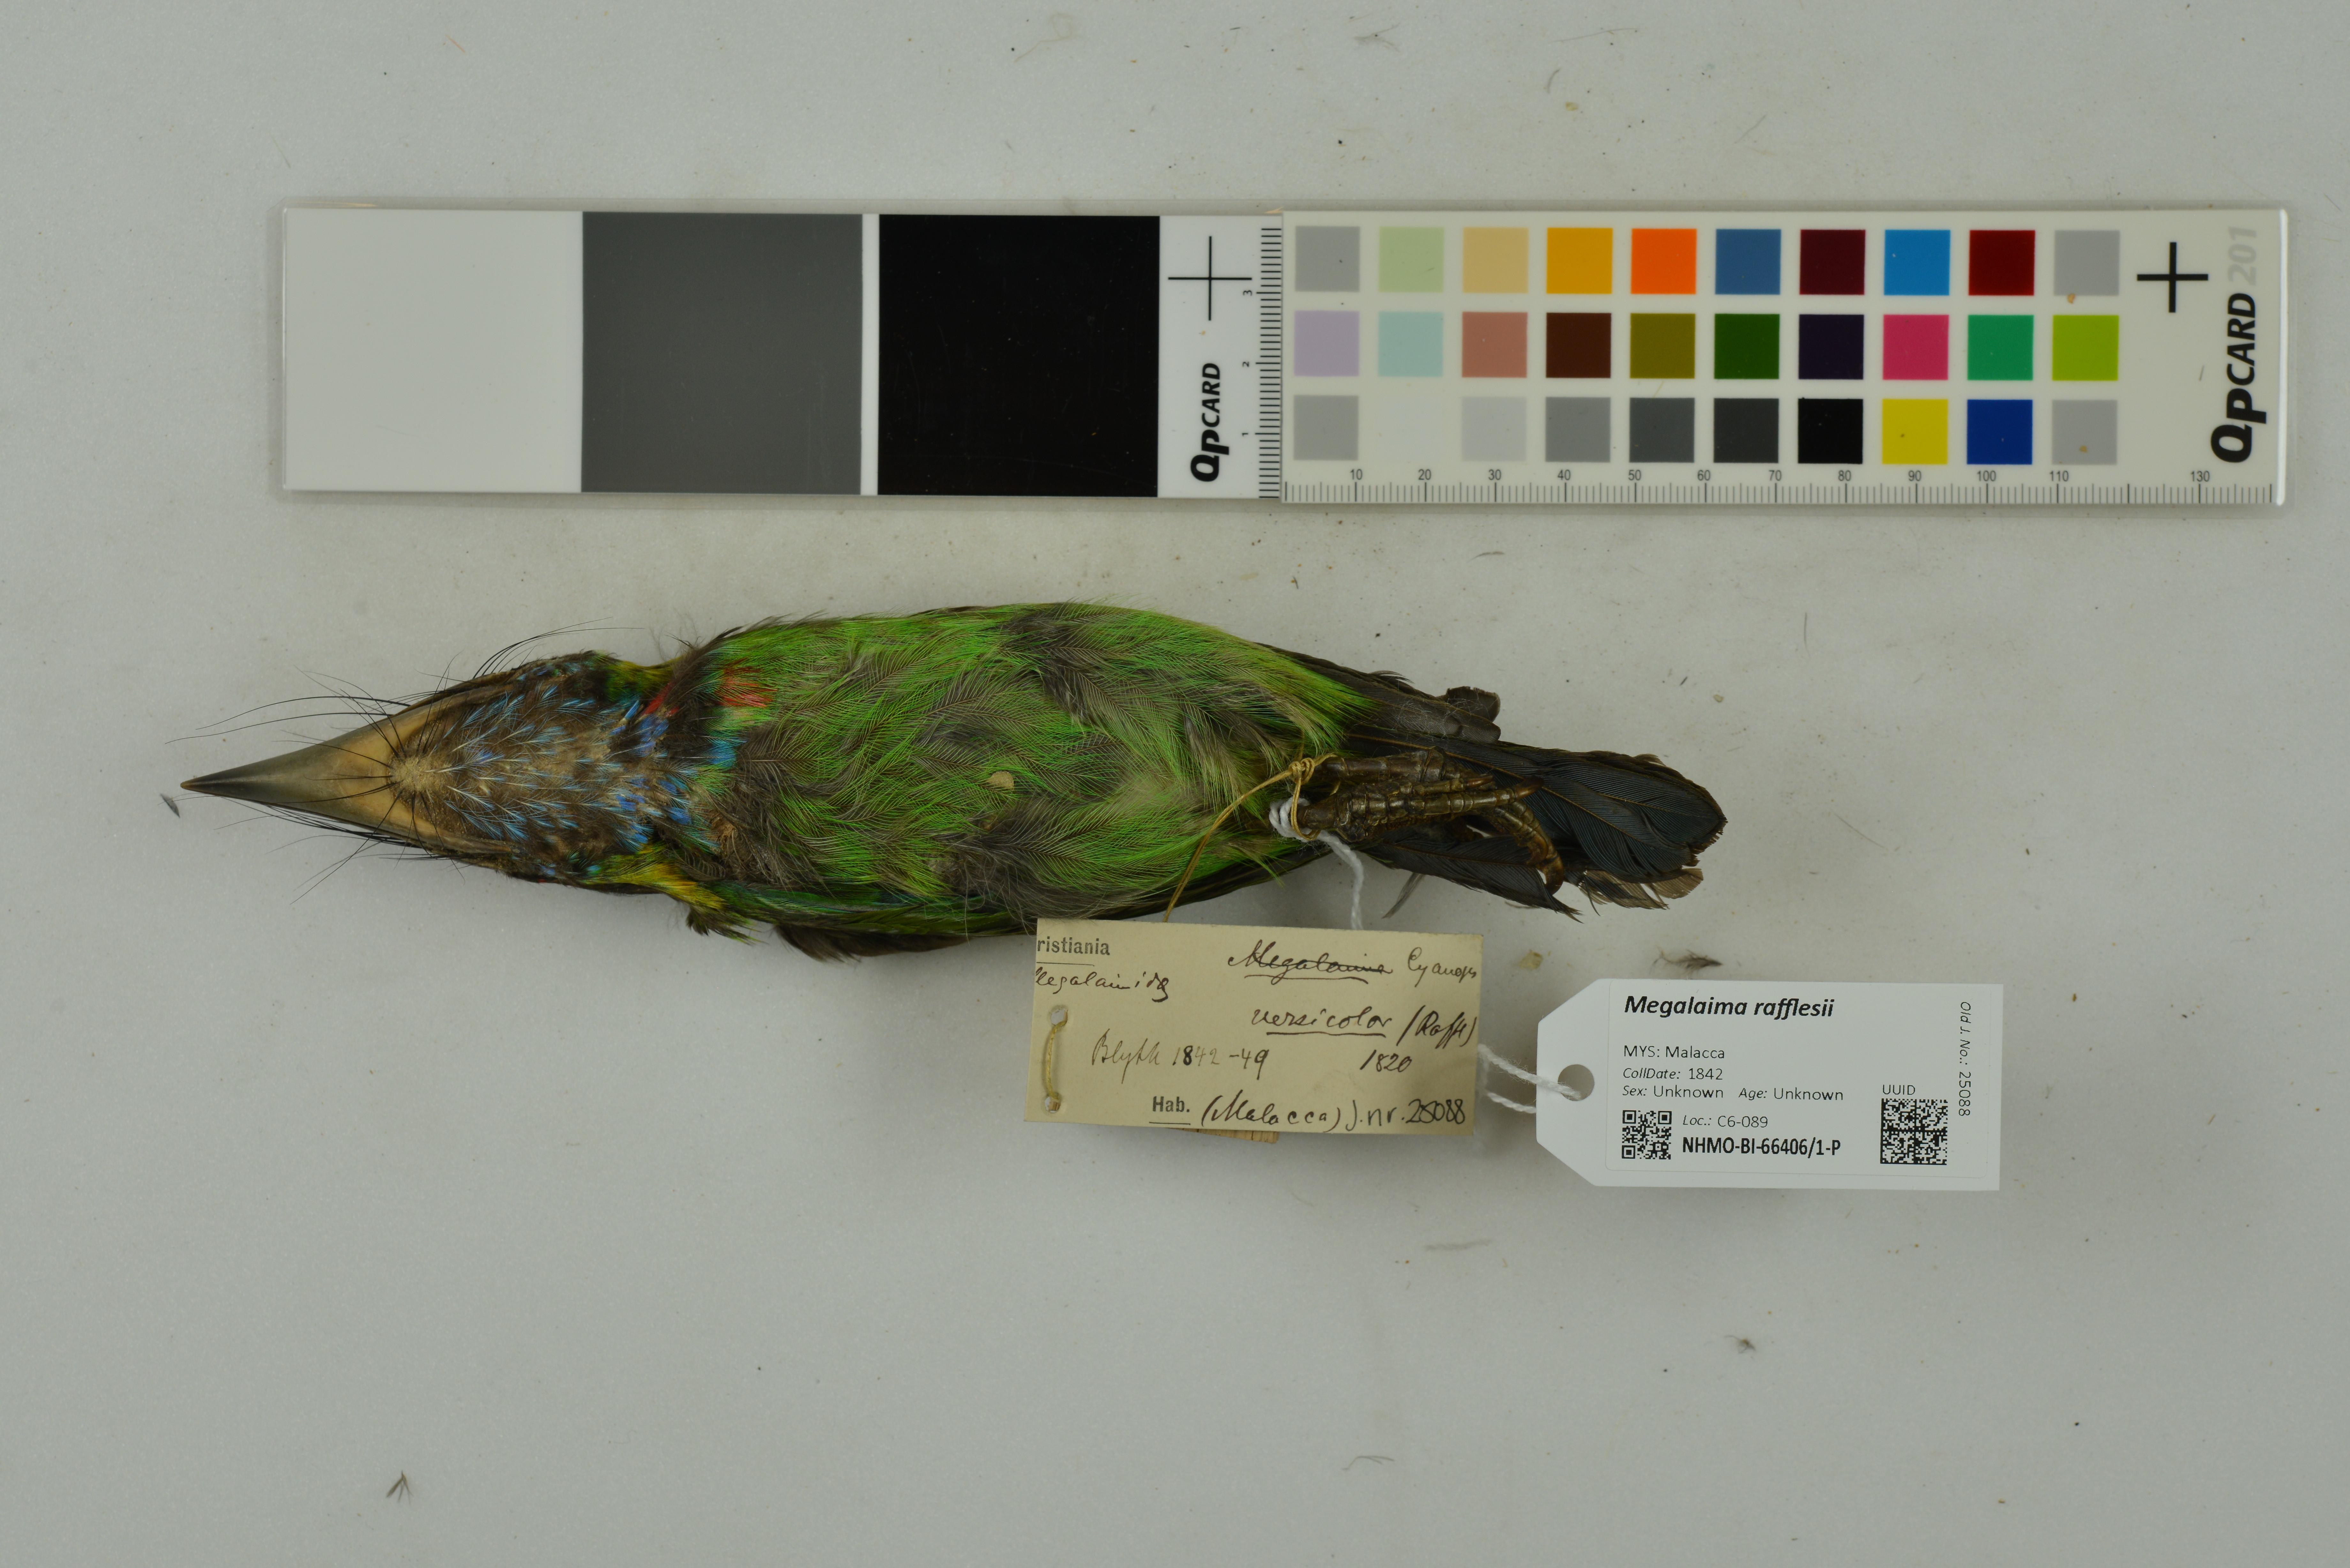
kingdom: Animalia
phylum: Chordata
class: Aves
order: Piciformes
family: Megalaimidae
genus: Psilopogon
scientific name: Psilopogon rafflesii
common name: Red-crowned barbet
